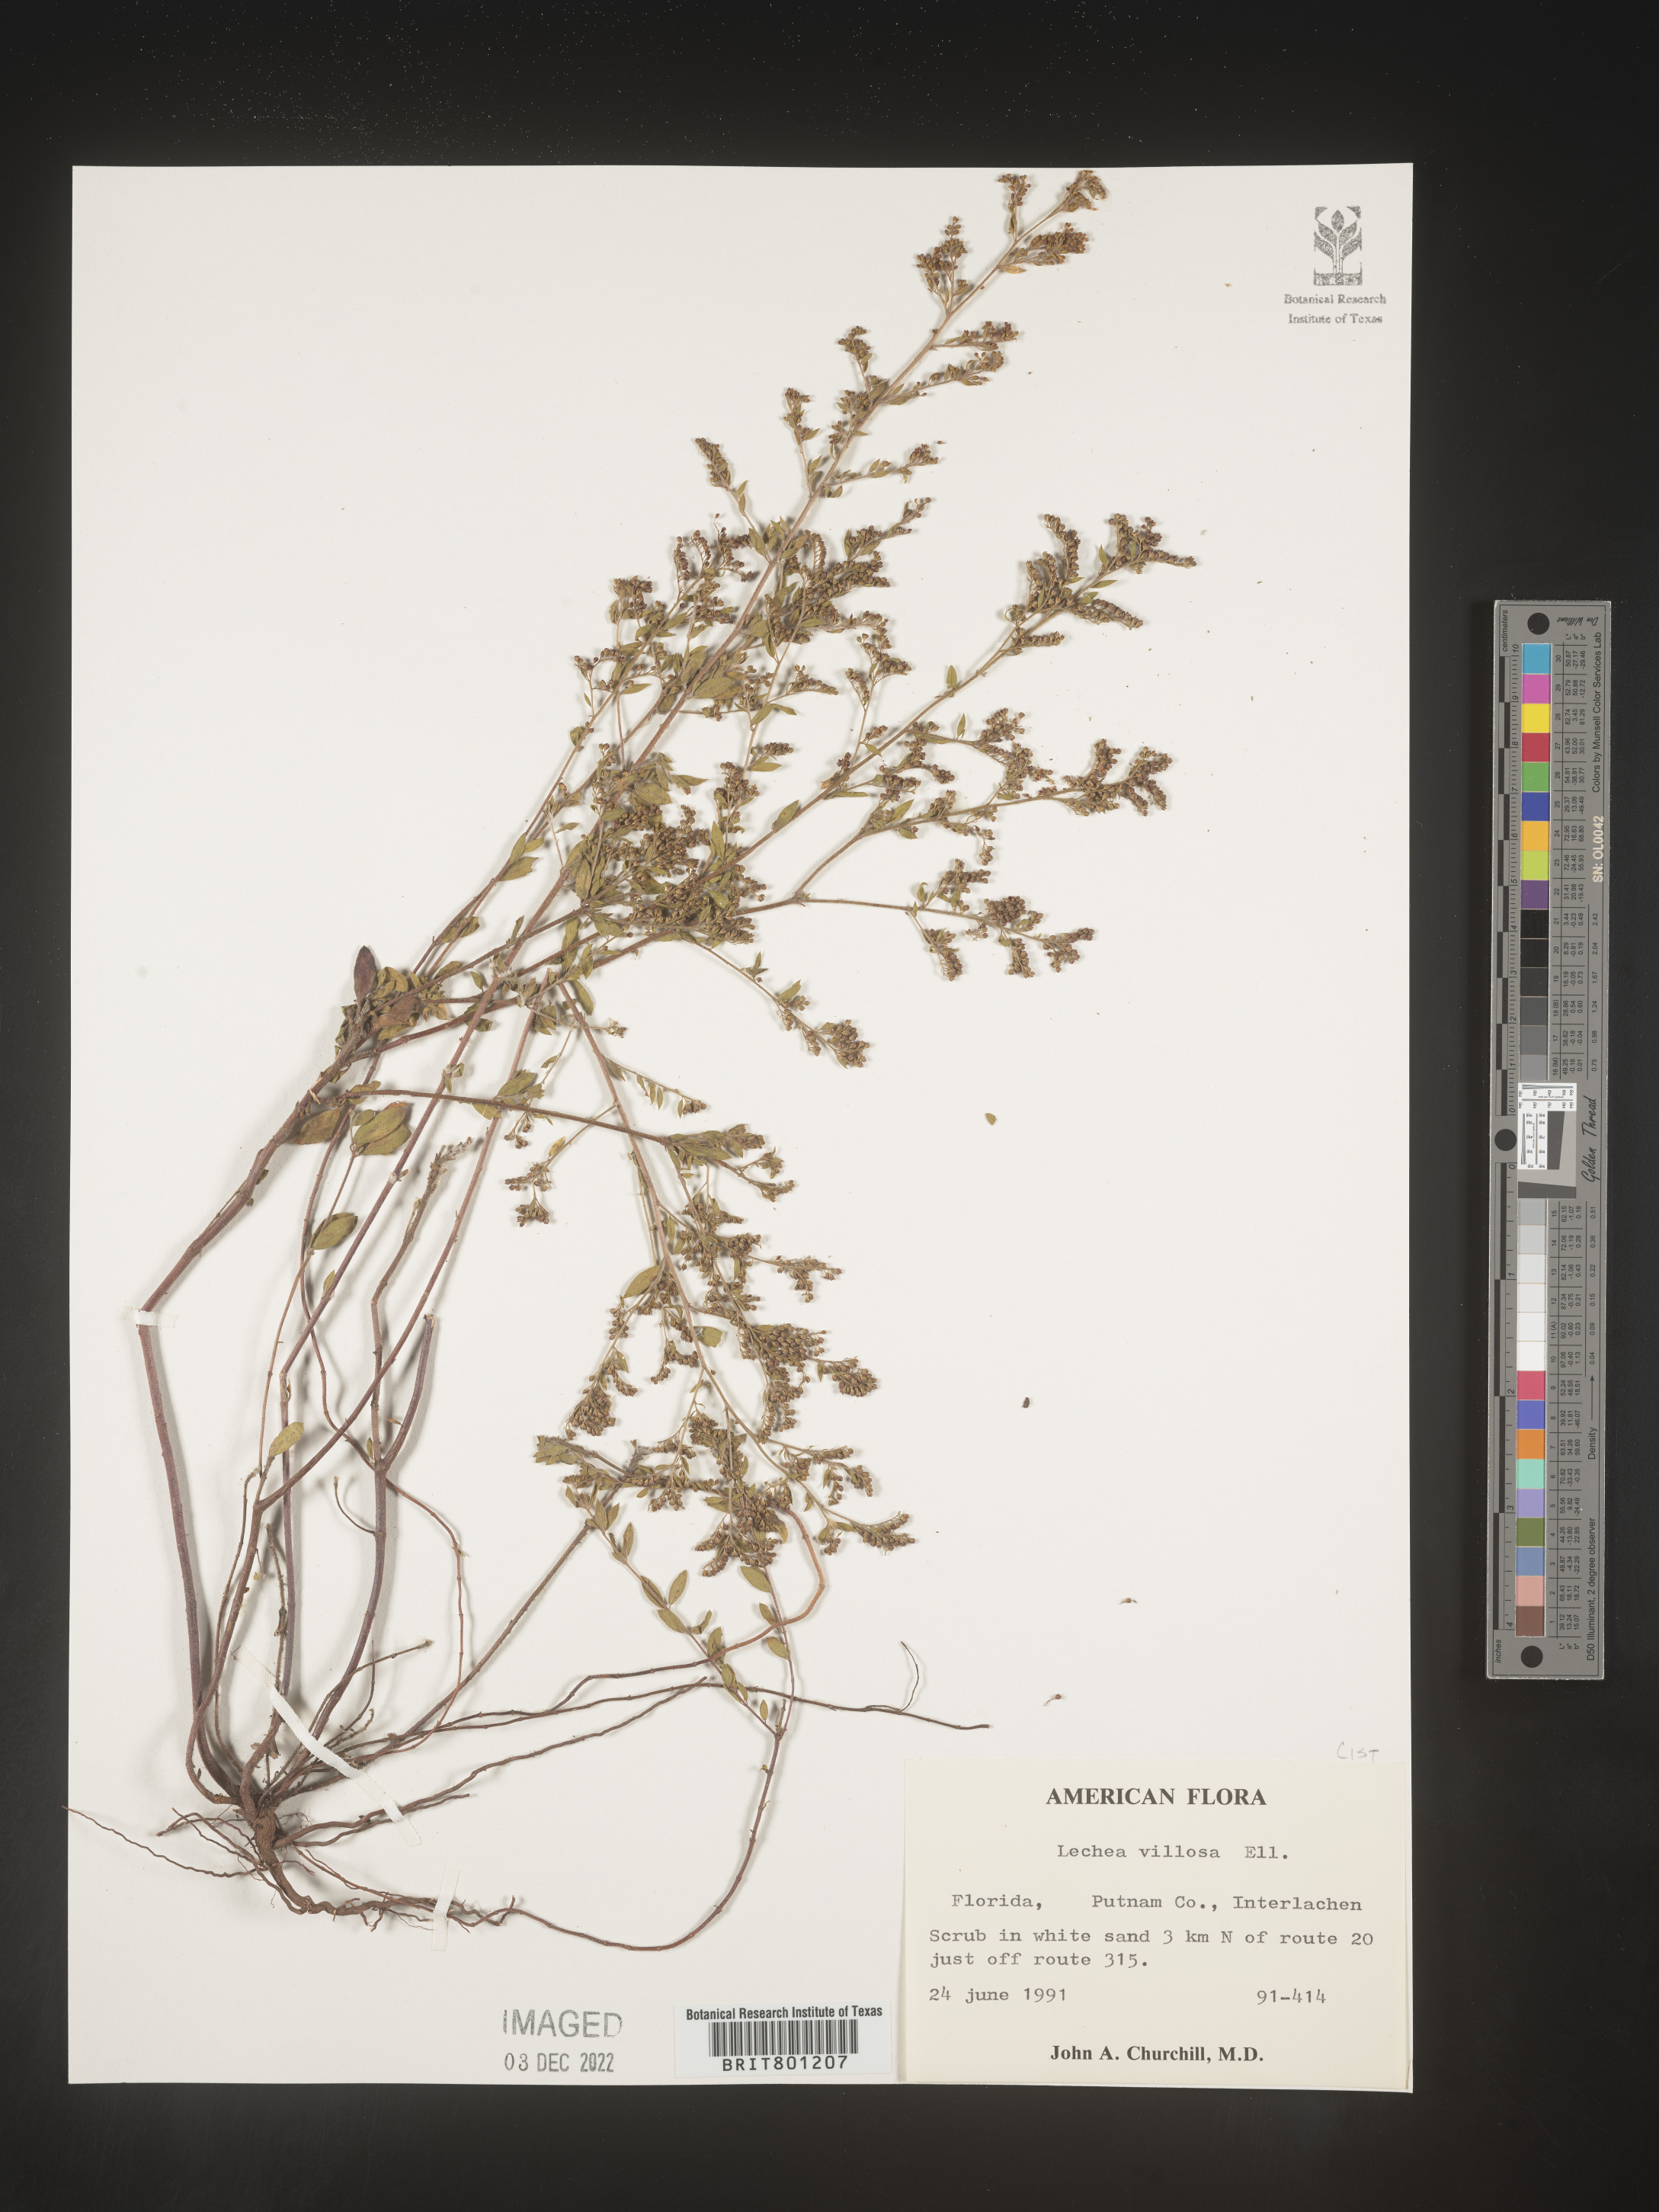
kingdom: Plantae
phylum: Tracheophyta
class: Magnoliopsida
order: Malvales
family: Cistaceae
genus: Lechea
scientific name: Lechea mucronata
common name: Hairy pinweed
